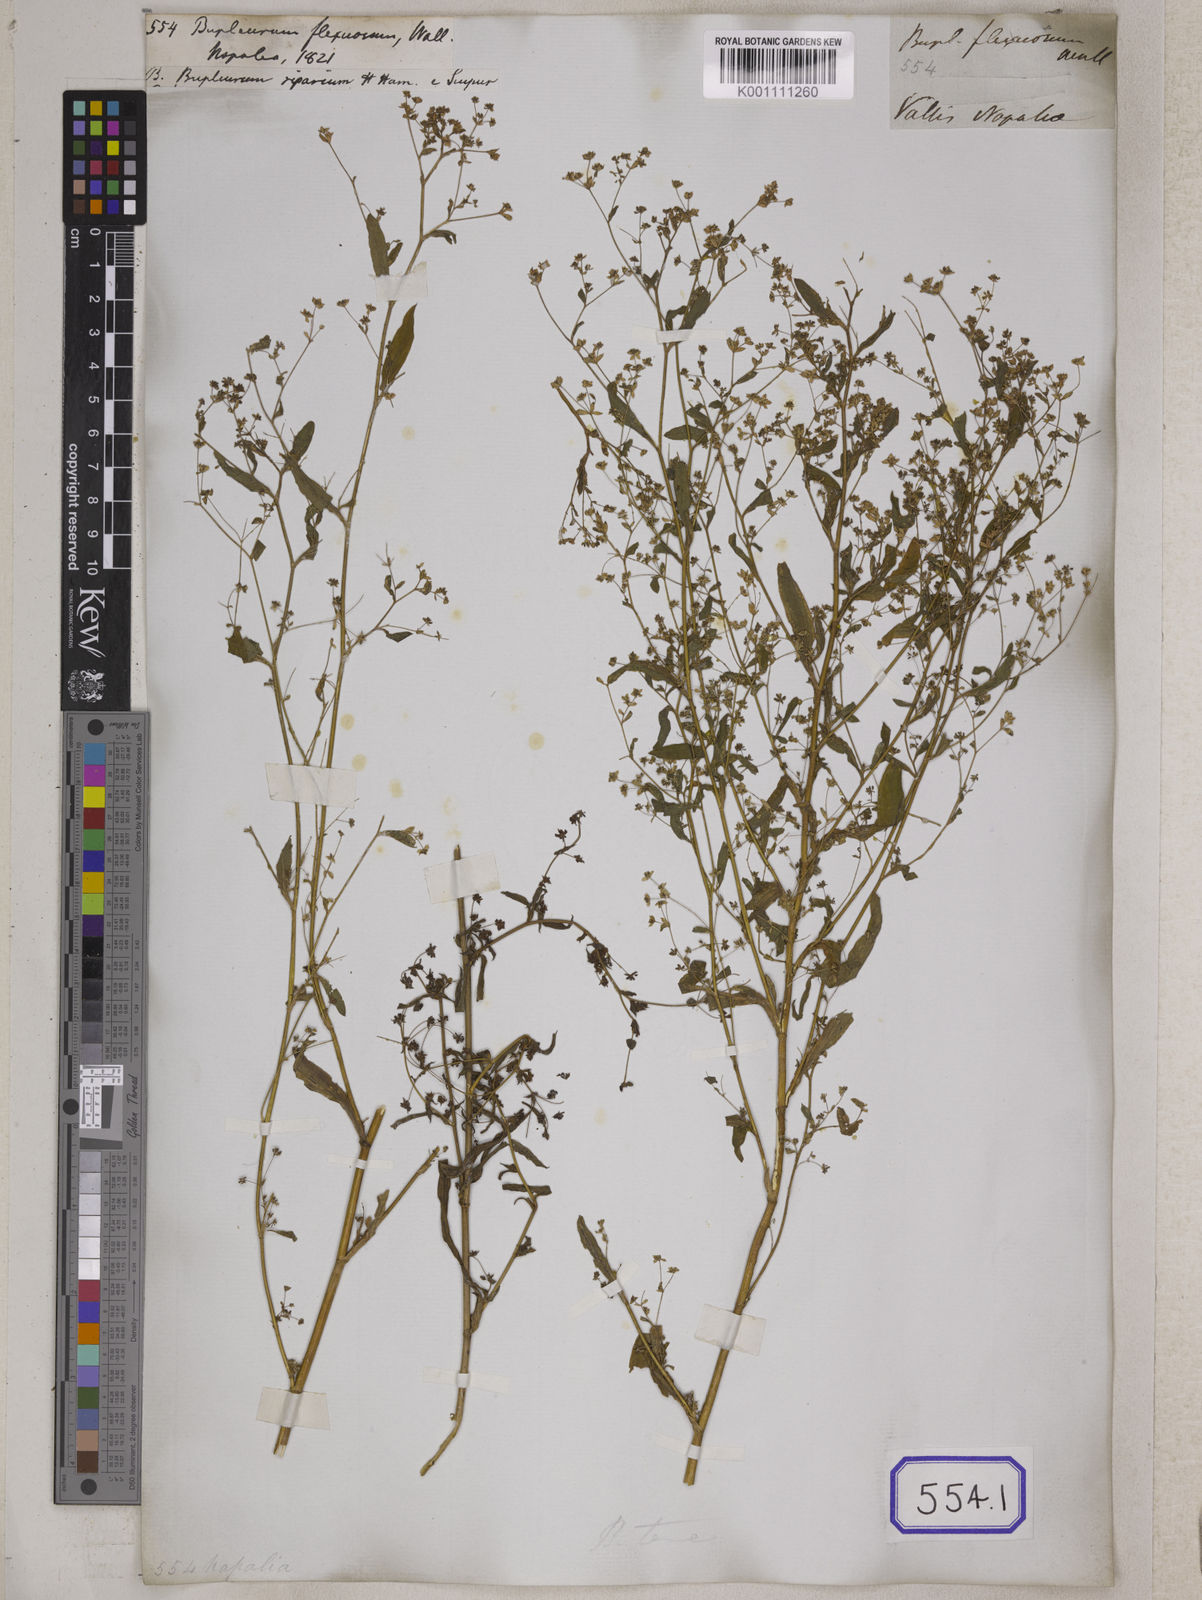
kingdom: Plantae
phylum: Tracheophyta
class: Magnoliopsida
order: Apiales
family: Apiaceae
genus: Bupleurum
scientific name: Bupleurum
